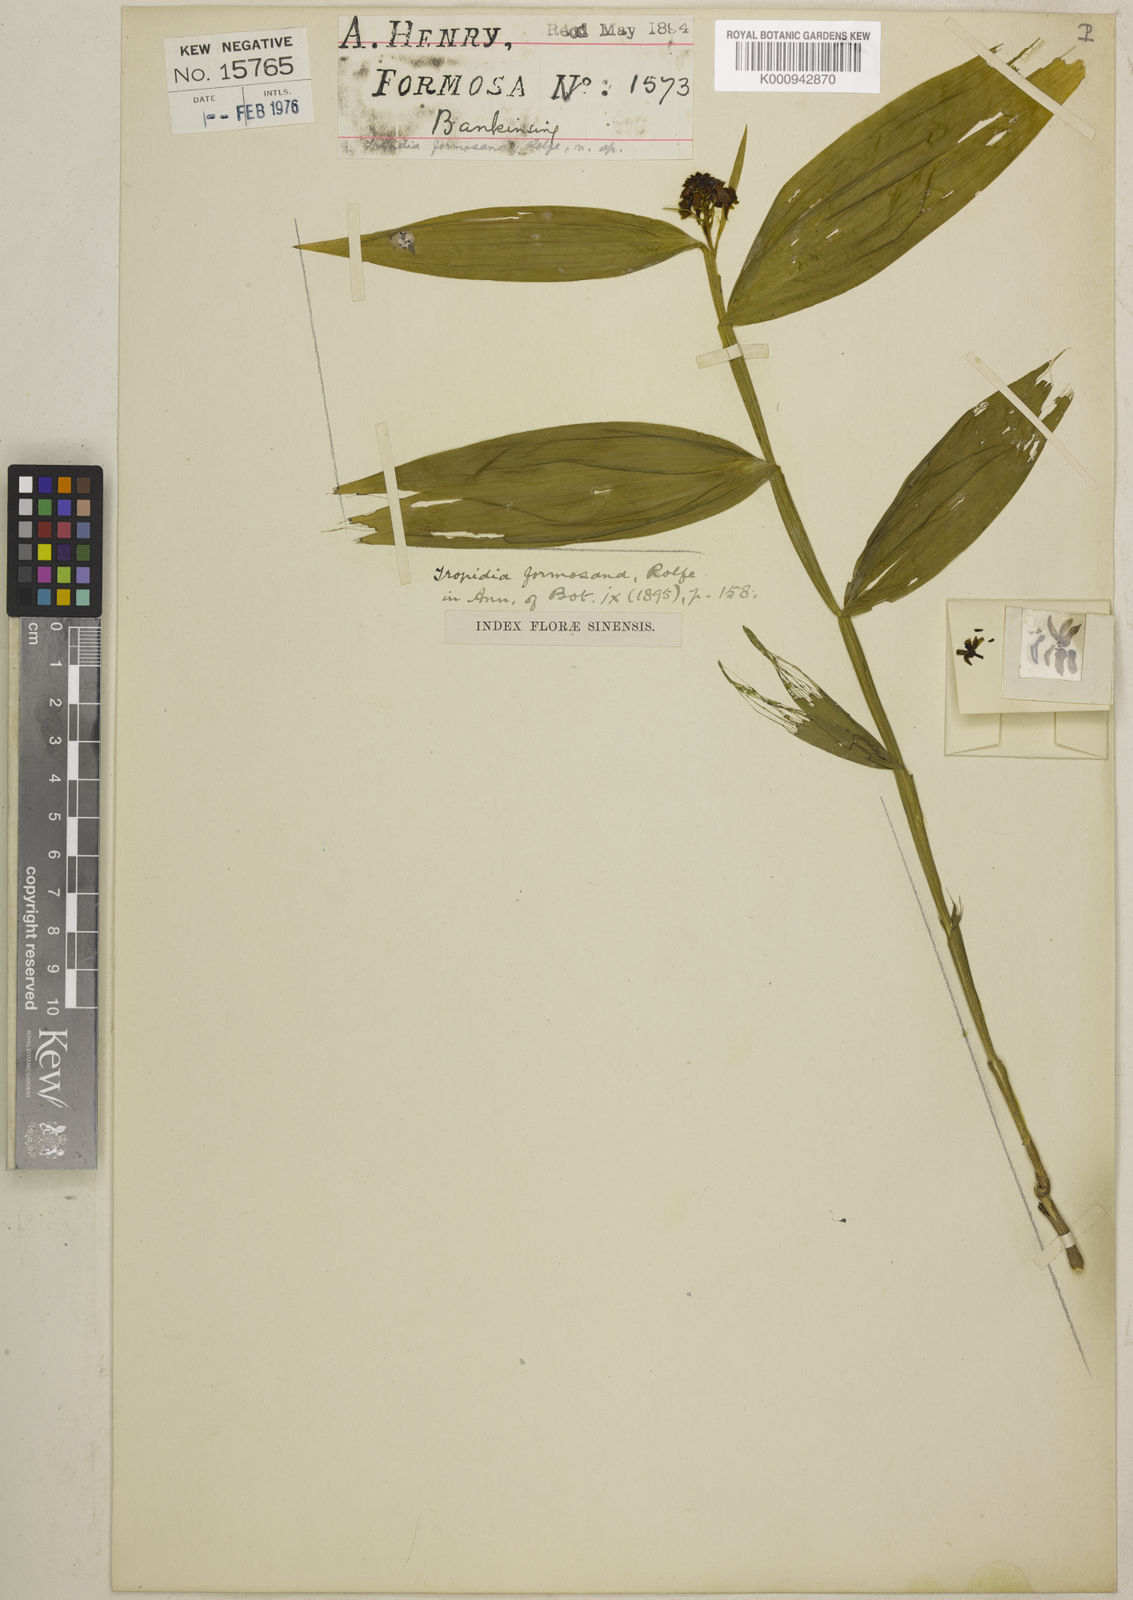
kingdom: Plantae
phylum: Tracheophyta
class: Liliopsida
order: Asparagales
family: Orchidaceae
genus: Tropidia
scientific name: Tropidia angulosa
